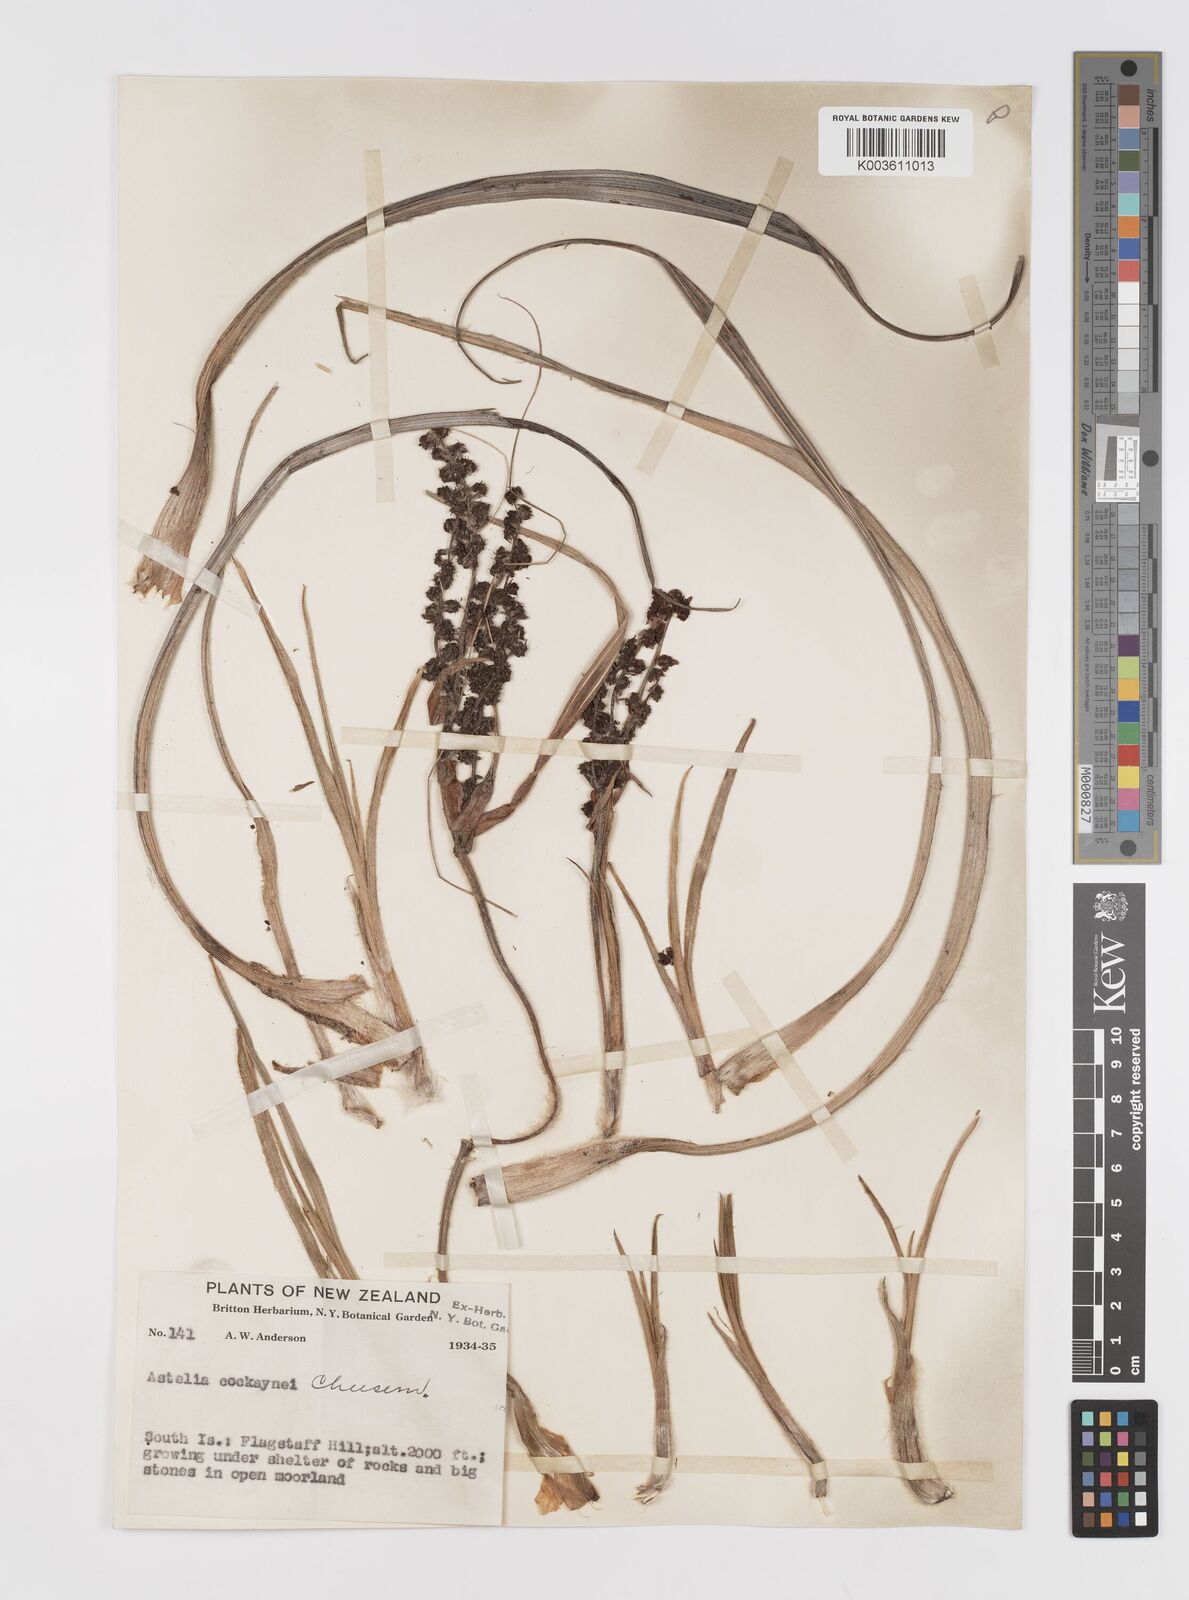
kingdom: Plantae
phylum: Tracheophyta
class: Liliopsida
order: Asparagales
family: Asteliaceae
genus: Astelia
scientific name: Astelia nervosa
